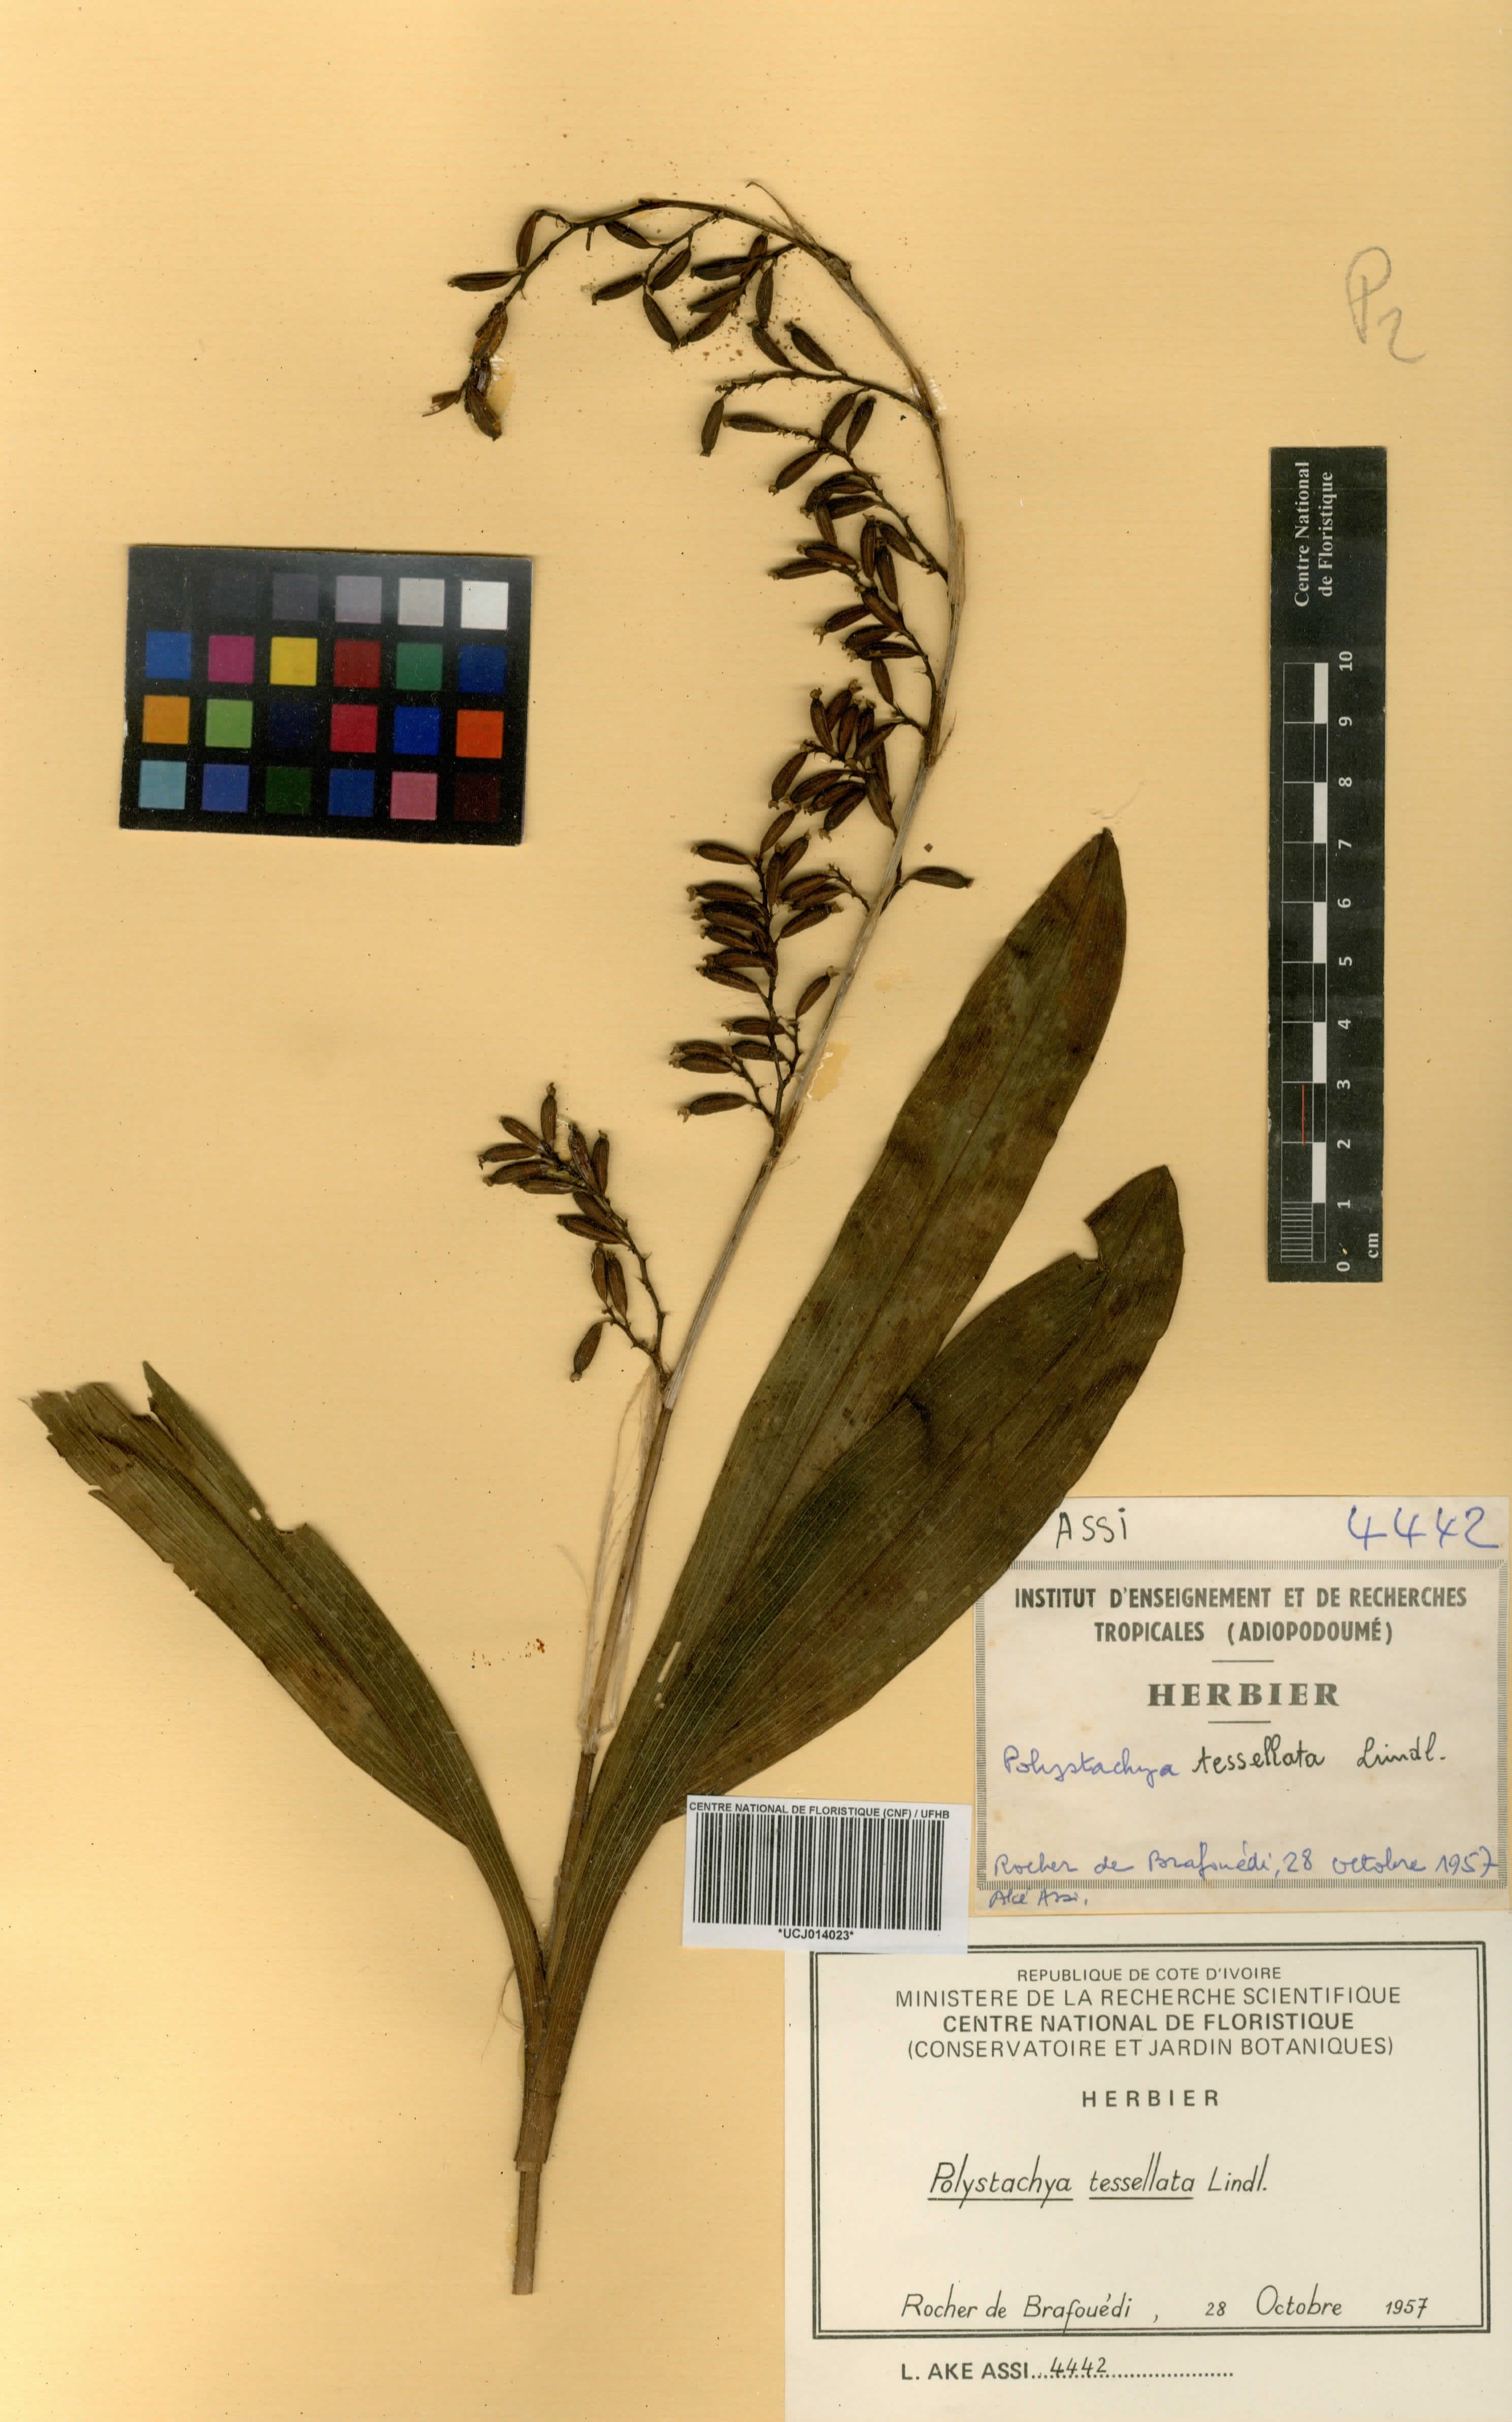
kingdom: Plantae
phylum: Tracheophyta
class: Liliopsida
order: Asparagales
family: Orchidaceae
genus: Polystachya
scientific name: Polystachya concreta
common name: Greater yellowspike orchid
